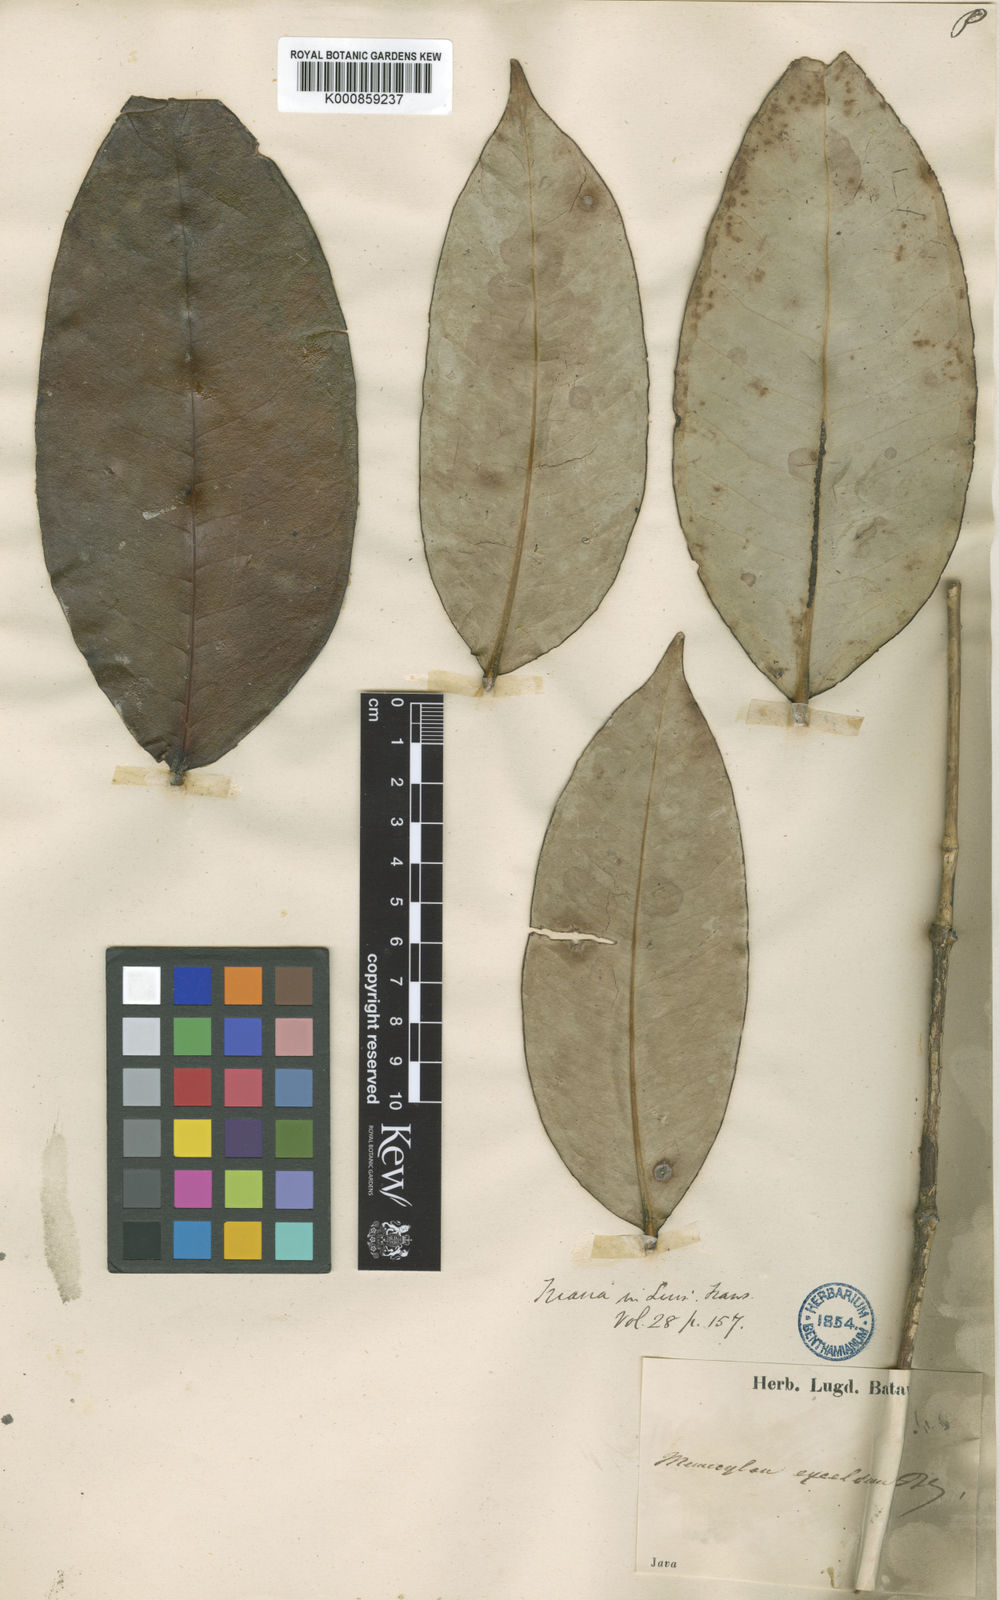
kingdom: Plantae
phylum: Tracheophyta
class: Magnoliopsida
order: Myrtales
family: Melastomataceae
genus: Memecylon
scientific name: Memecylon excelsum
